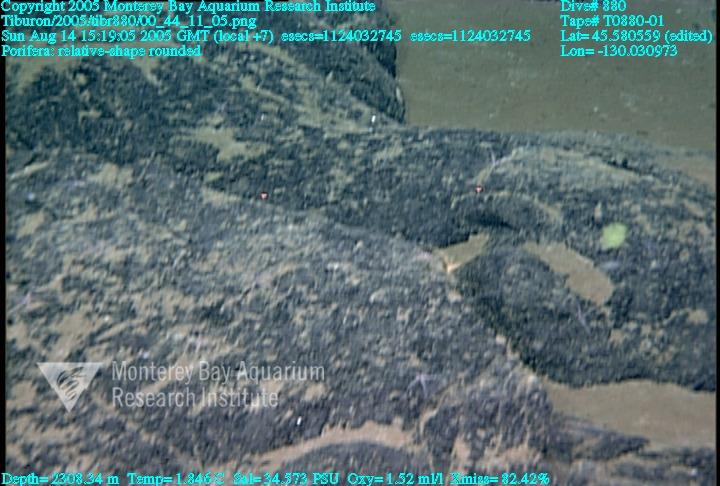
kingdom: Animalia
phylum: Porifera
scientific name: Porifera
